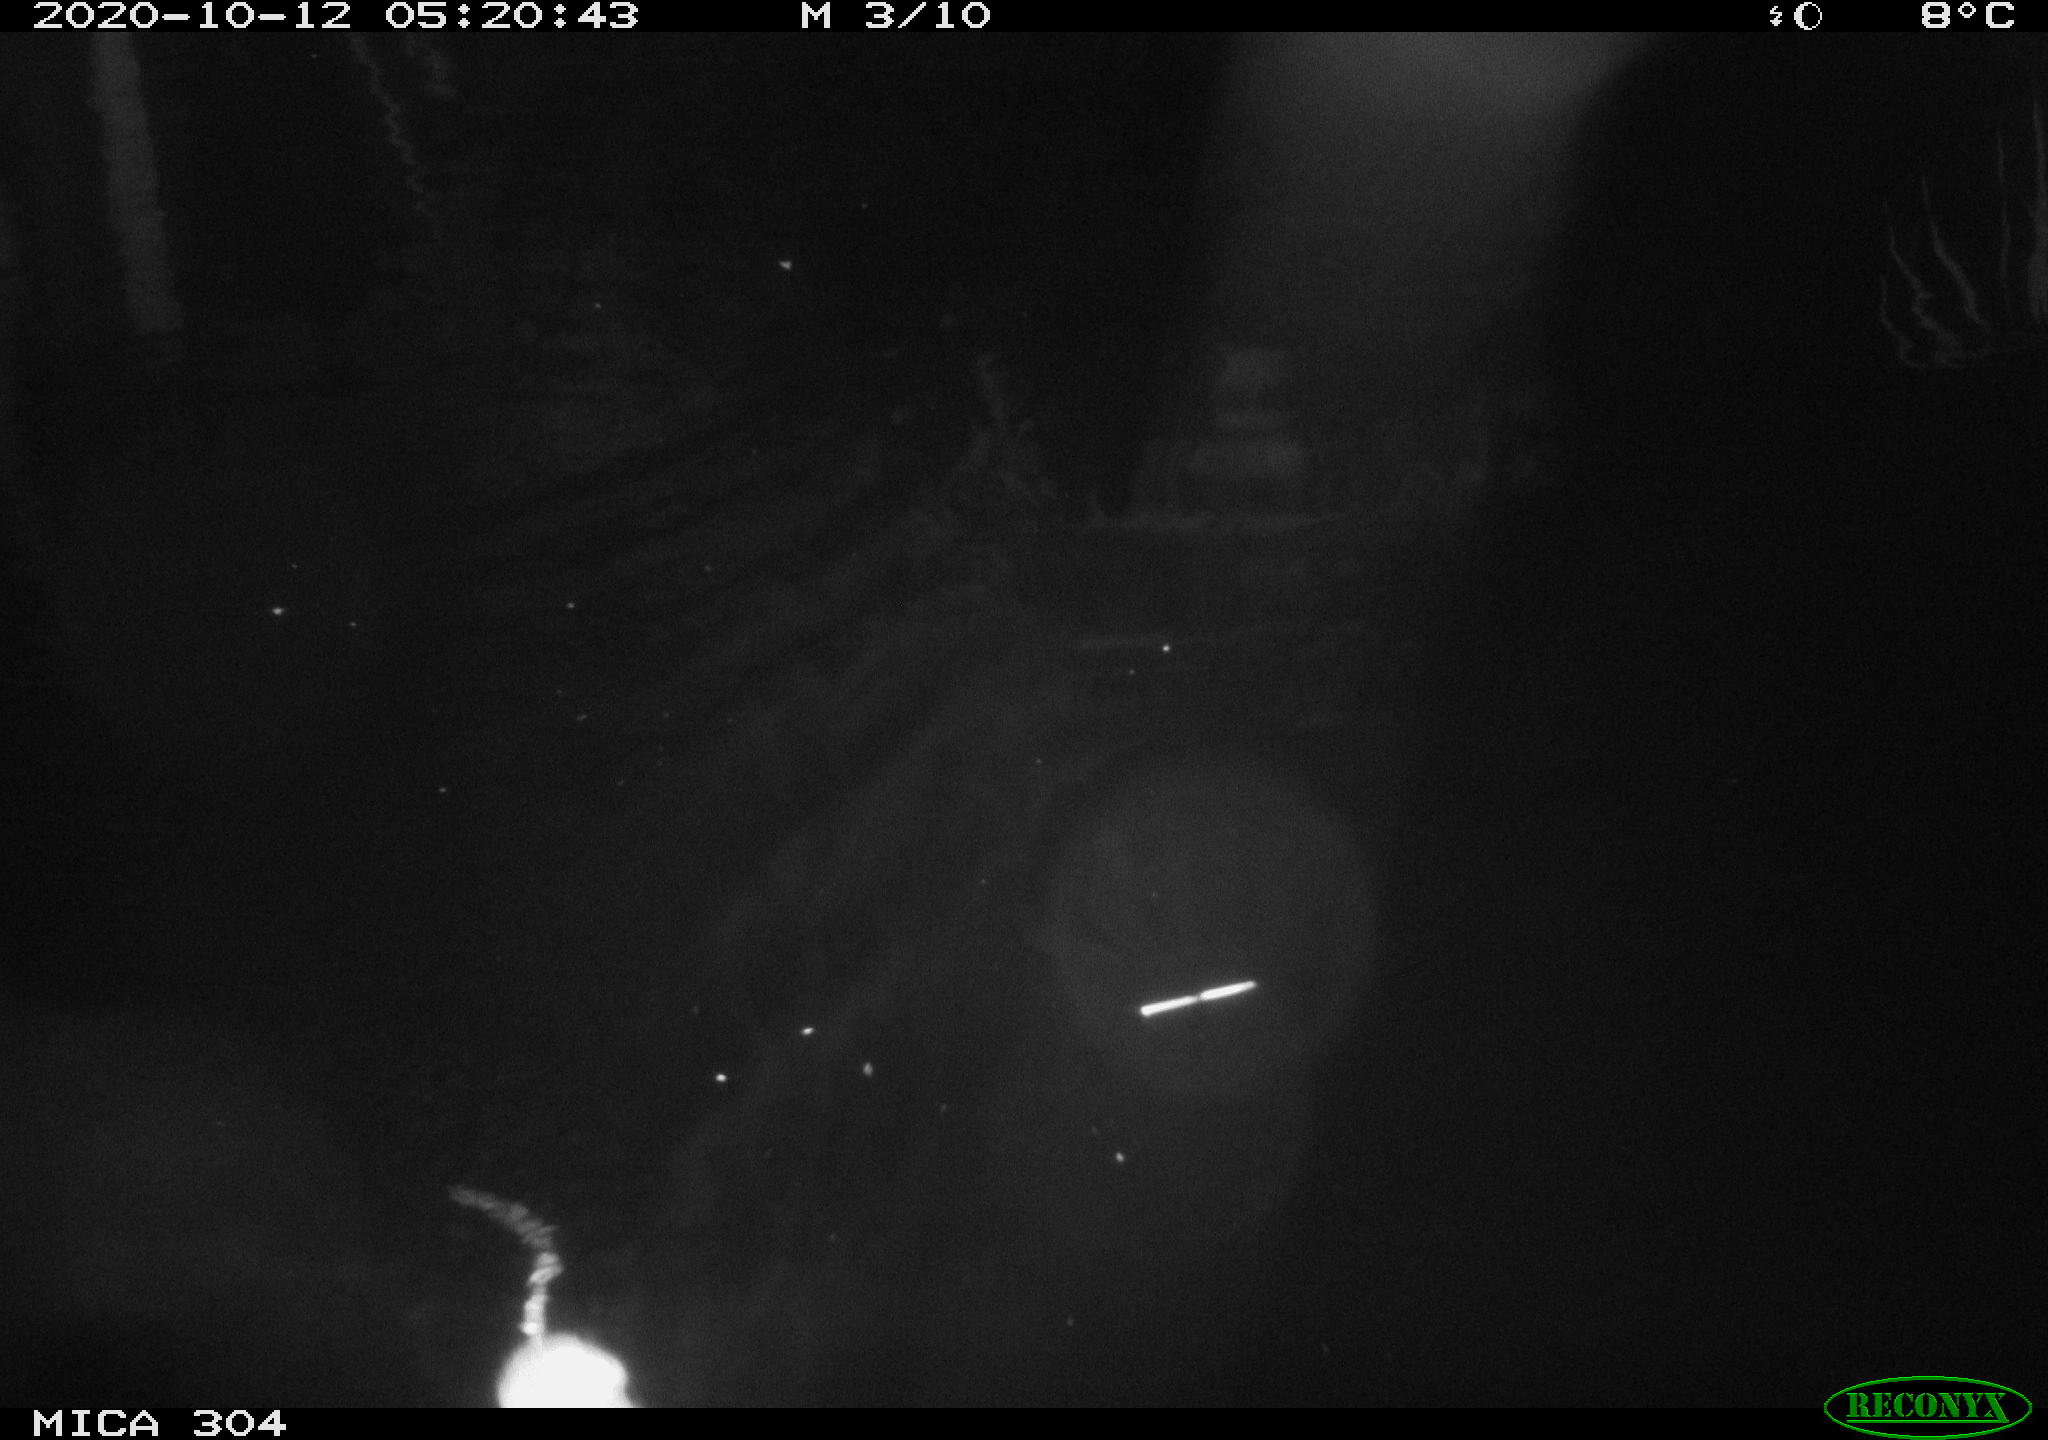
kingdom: Animalia
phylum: Chordata
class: Mammalia
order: Rodentia
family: Cricetidae
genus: Ondatra
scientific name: Ondatra zibethicus
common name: Muskrat
